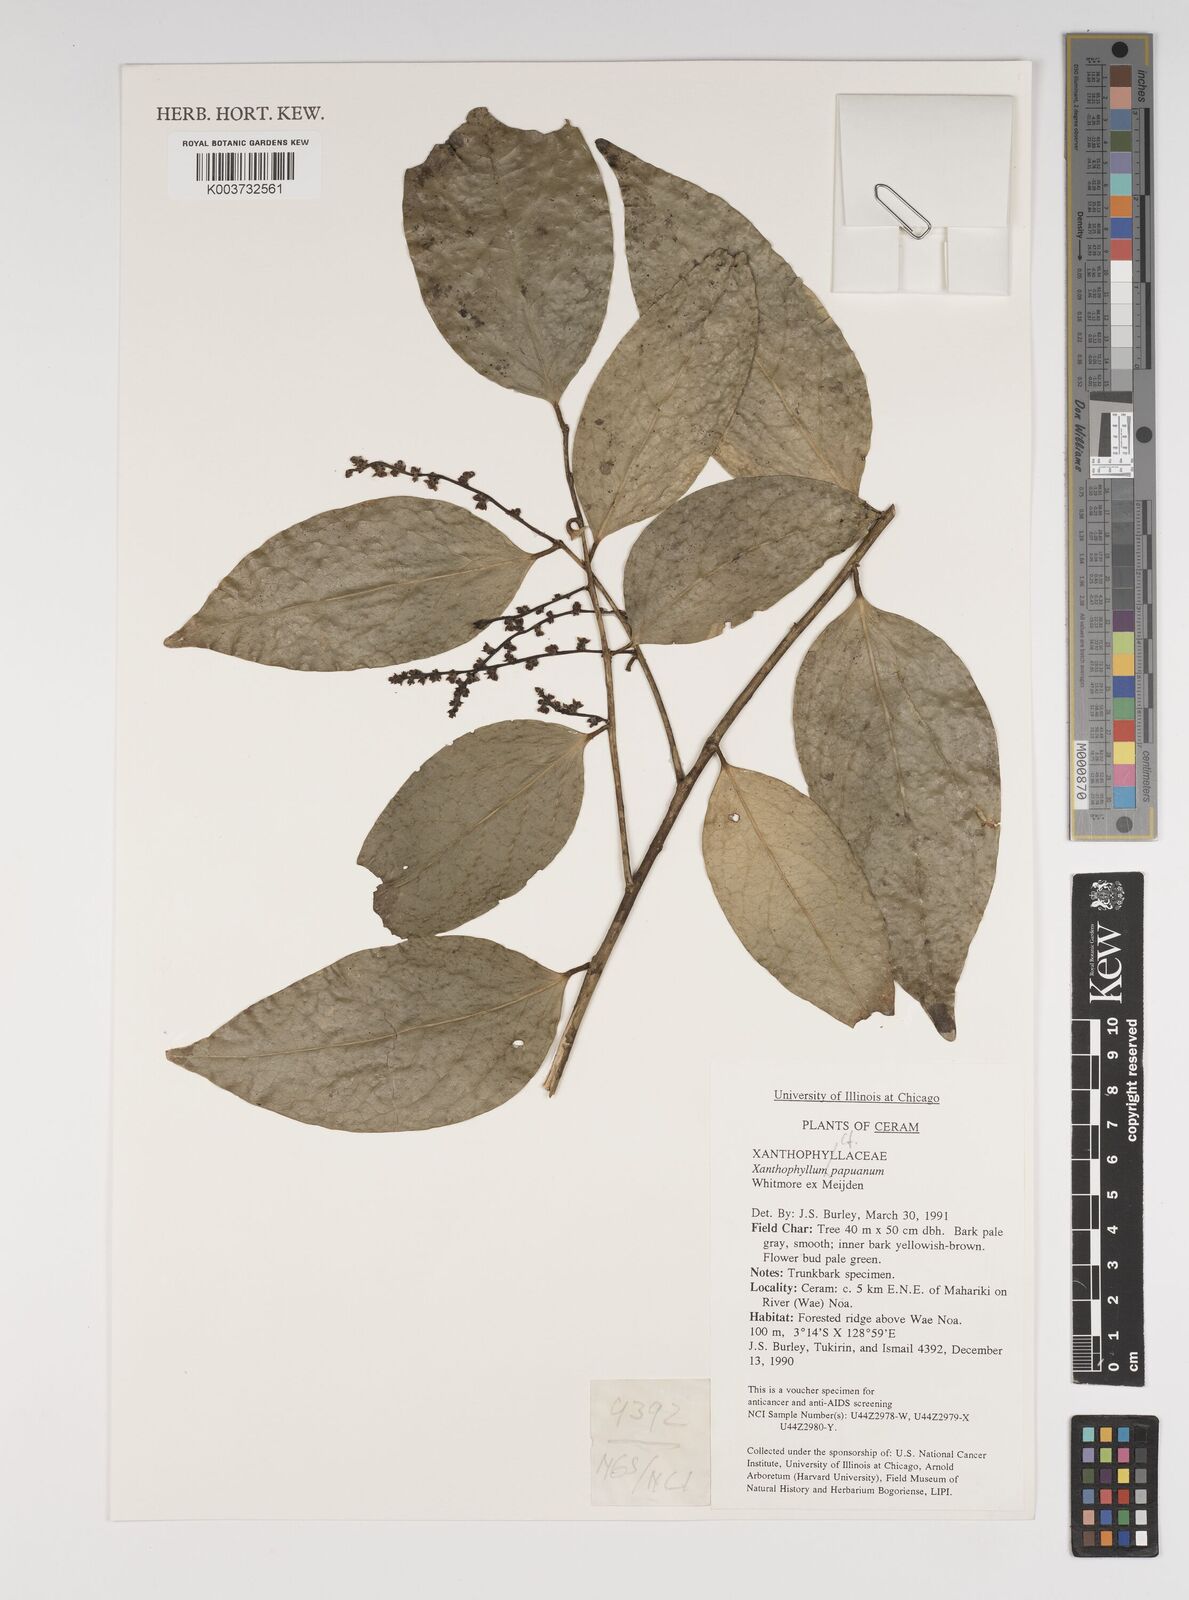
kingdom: Plantae
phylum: Tracheophyta
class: Magnoliopsida
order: Fabales
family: Polygalaceae
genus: Xanthophyllum
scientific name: Xanthophyllum papuanum
